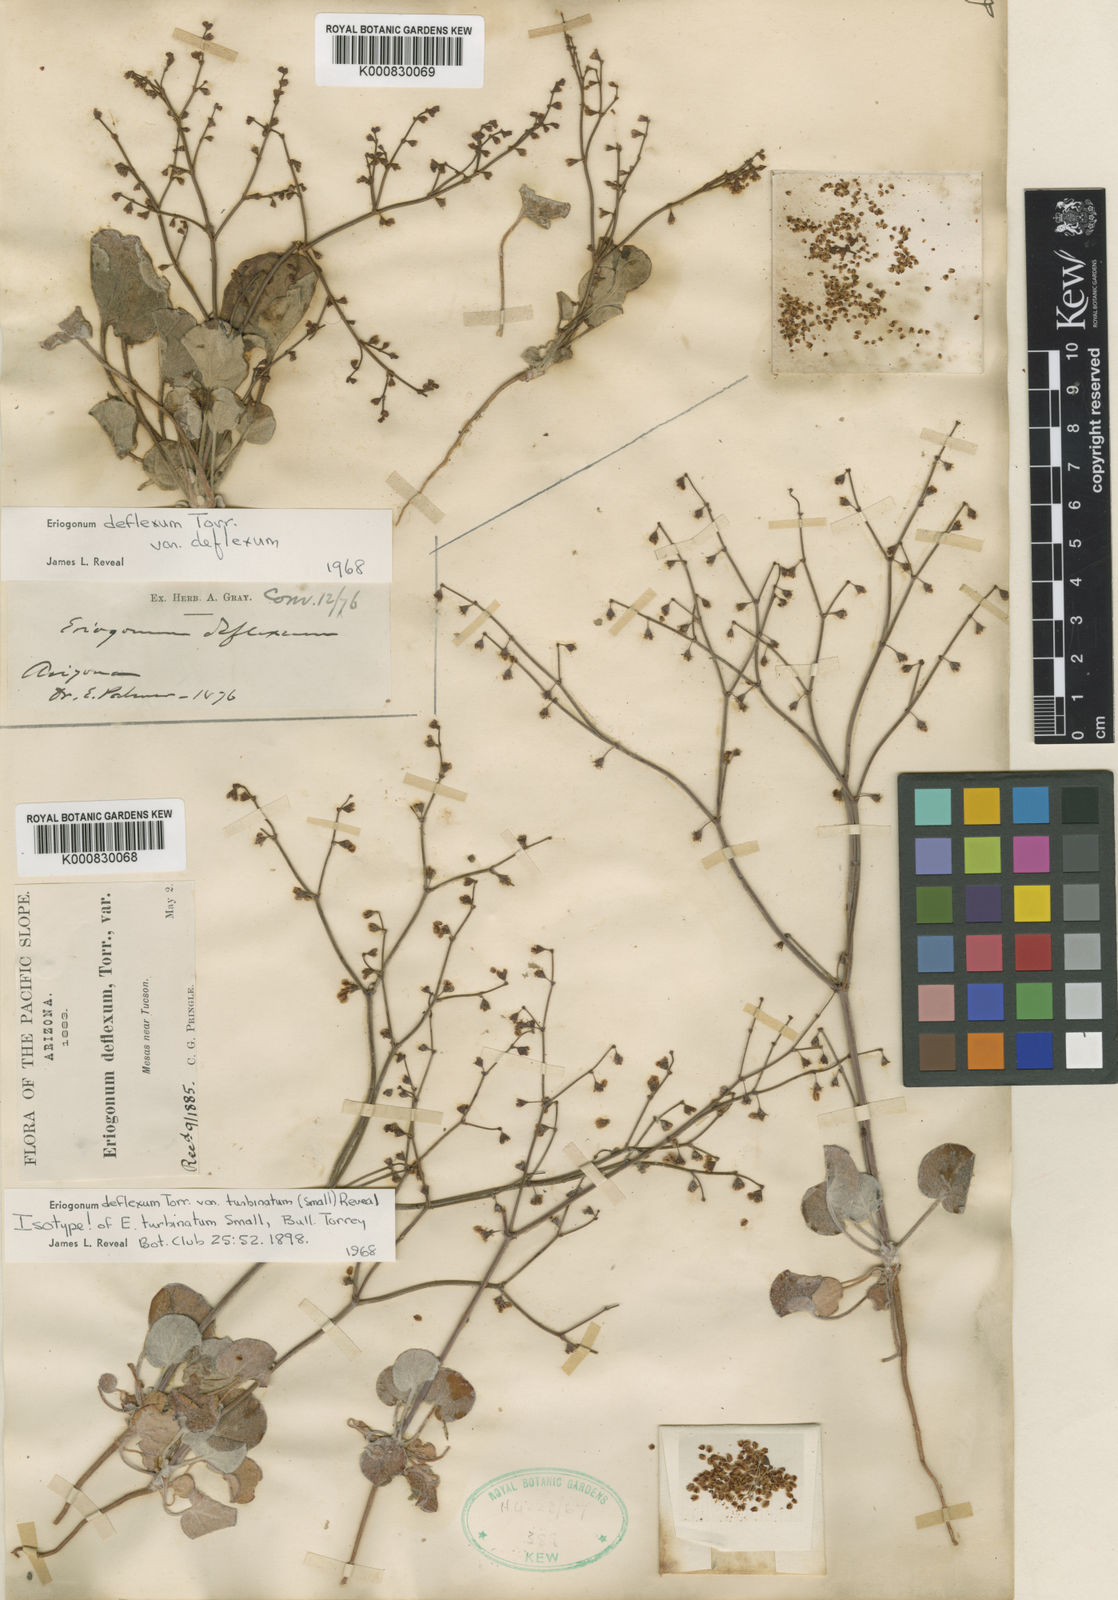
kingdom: Plantae
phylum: Tracheophyta
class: Magnoliopsida
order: Caryophyllales
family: Polygonaceae
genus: Eriogonum
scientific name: Eriogonum deflexum
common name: Skeleton-weed
